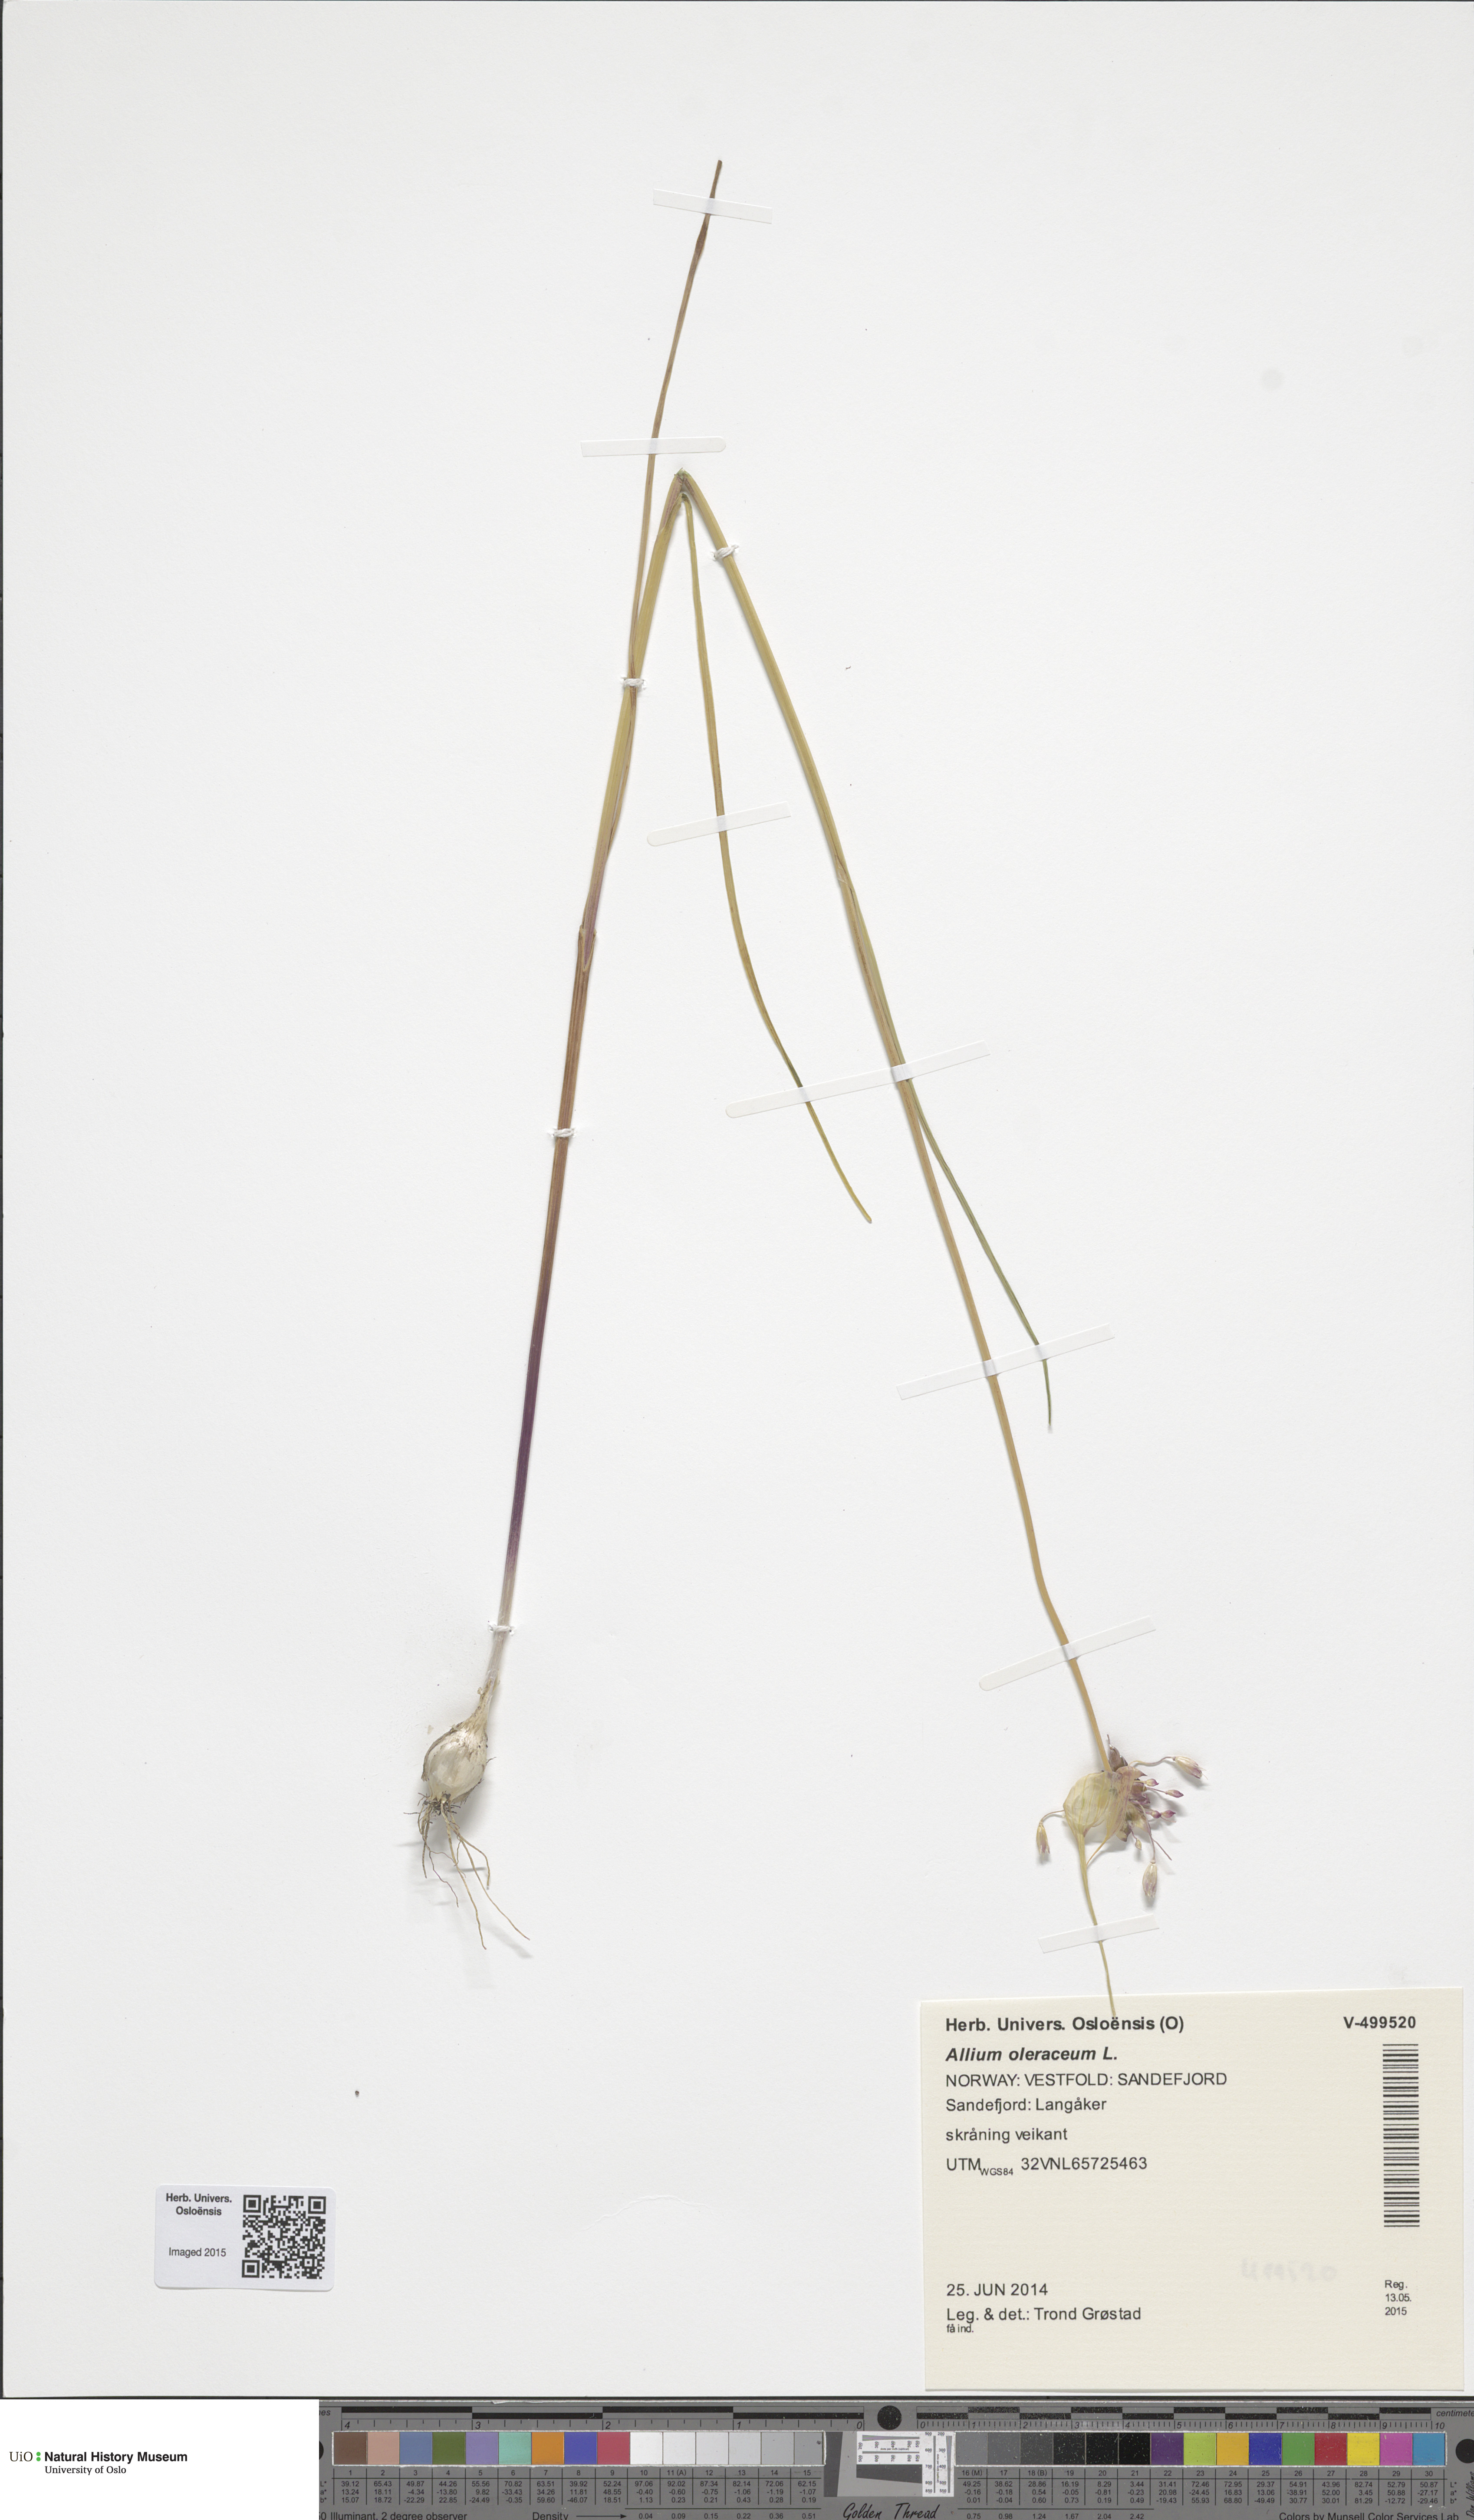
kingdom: Plantae
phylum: Tracheophyta
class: Liliopsida
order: Asparagales
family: Amaryllidaceae
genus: Allium
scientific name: Allium oleraceum
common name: Field garlic
